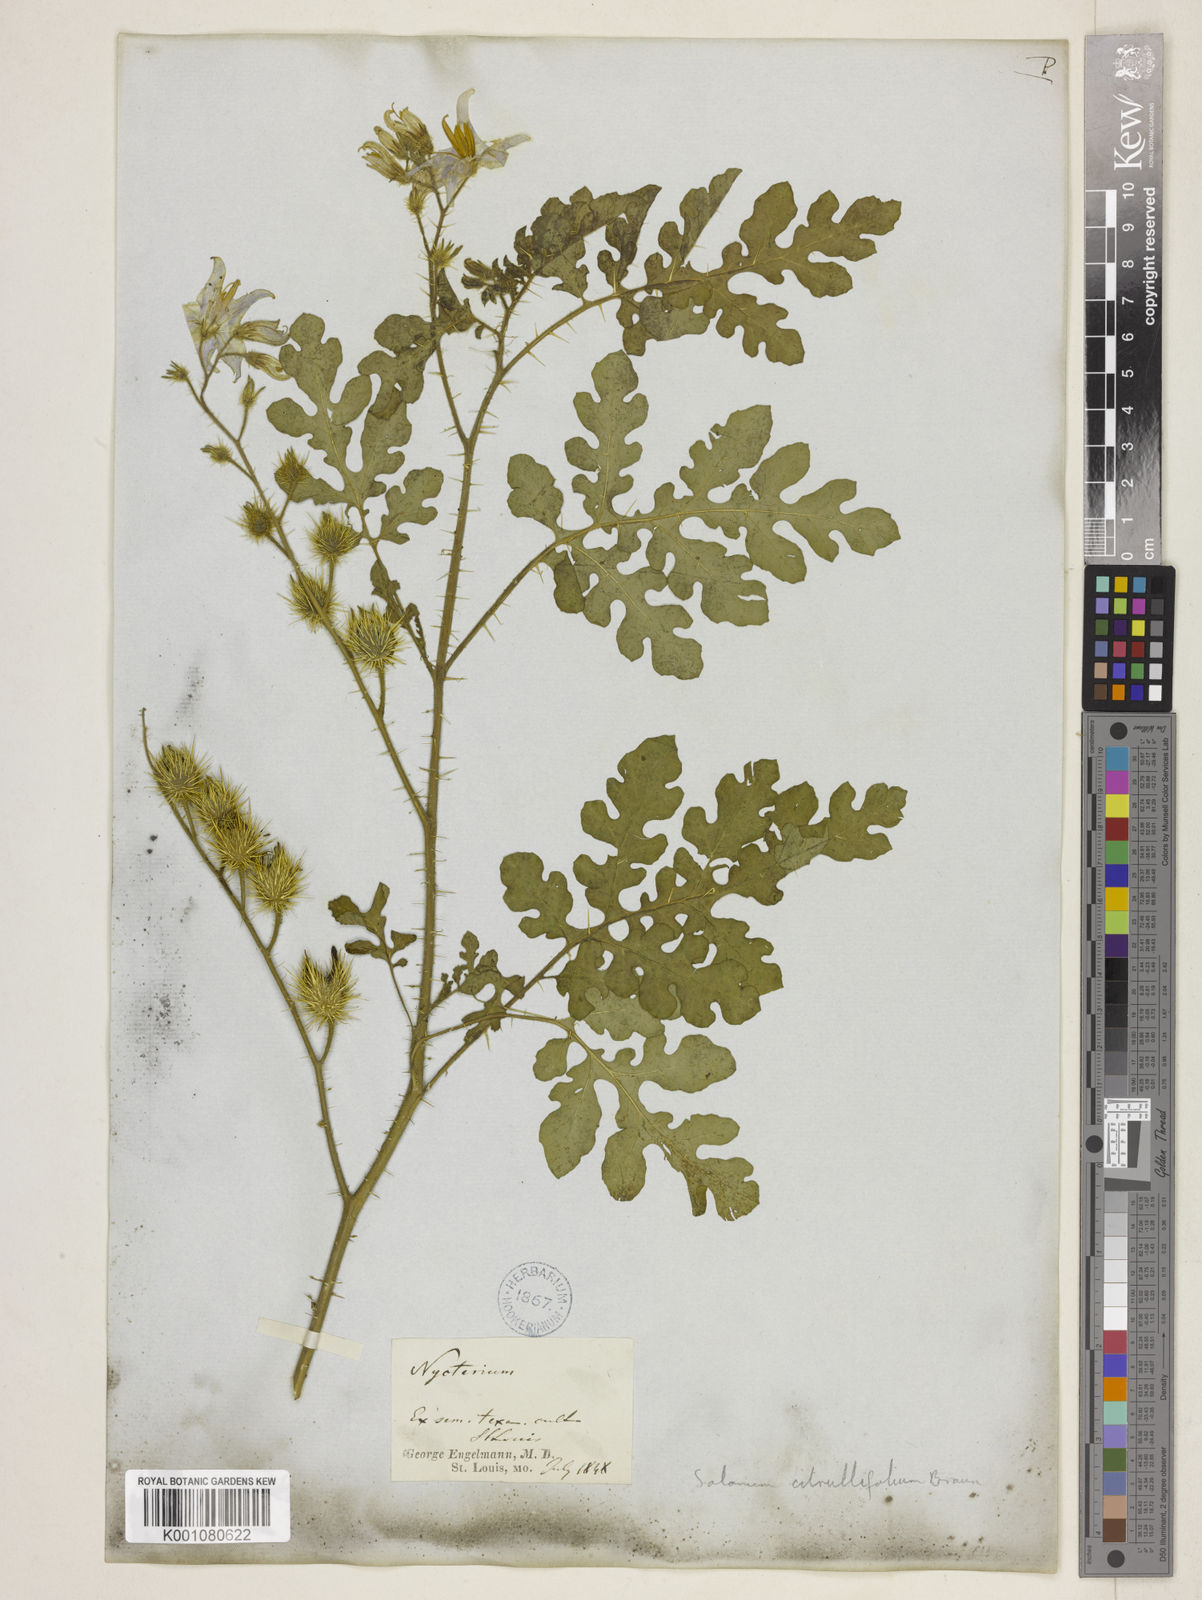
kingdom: Plantae
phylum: Tracheophyta
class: Magnoliopsida
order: Solanales
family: Solanaceae
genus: Solanum
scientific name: Solanum heterodoxum
